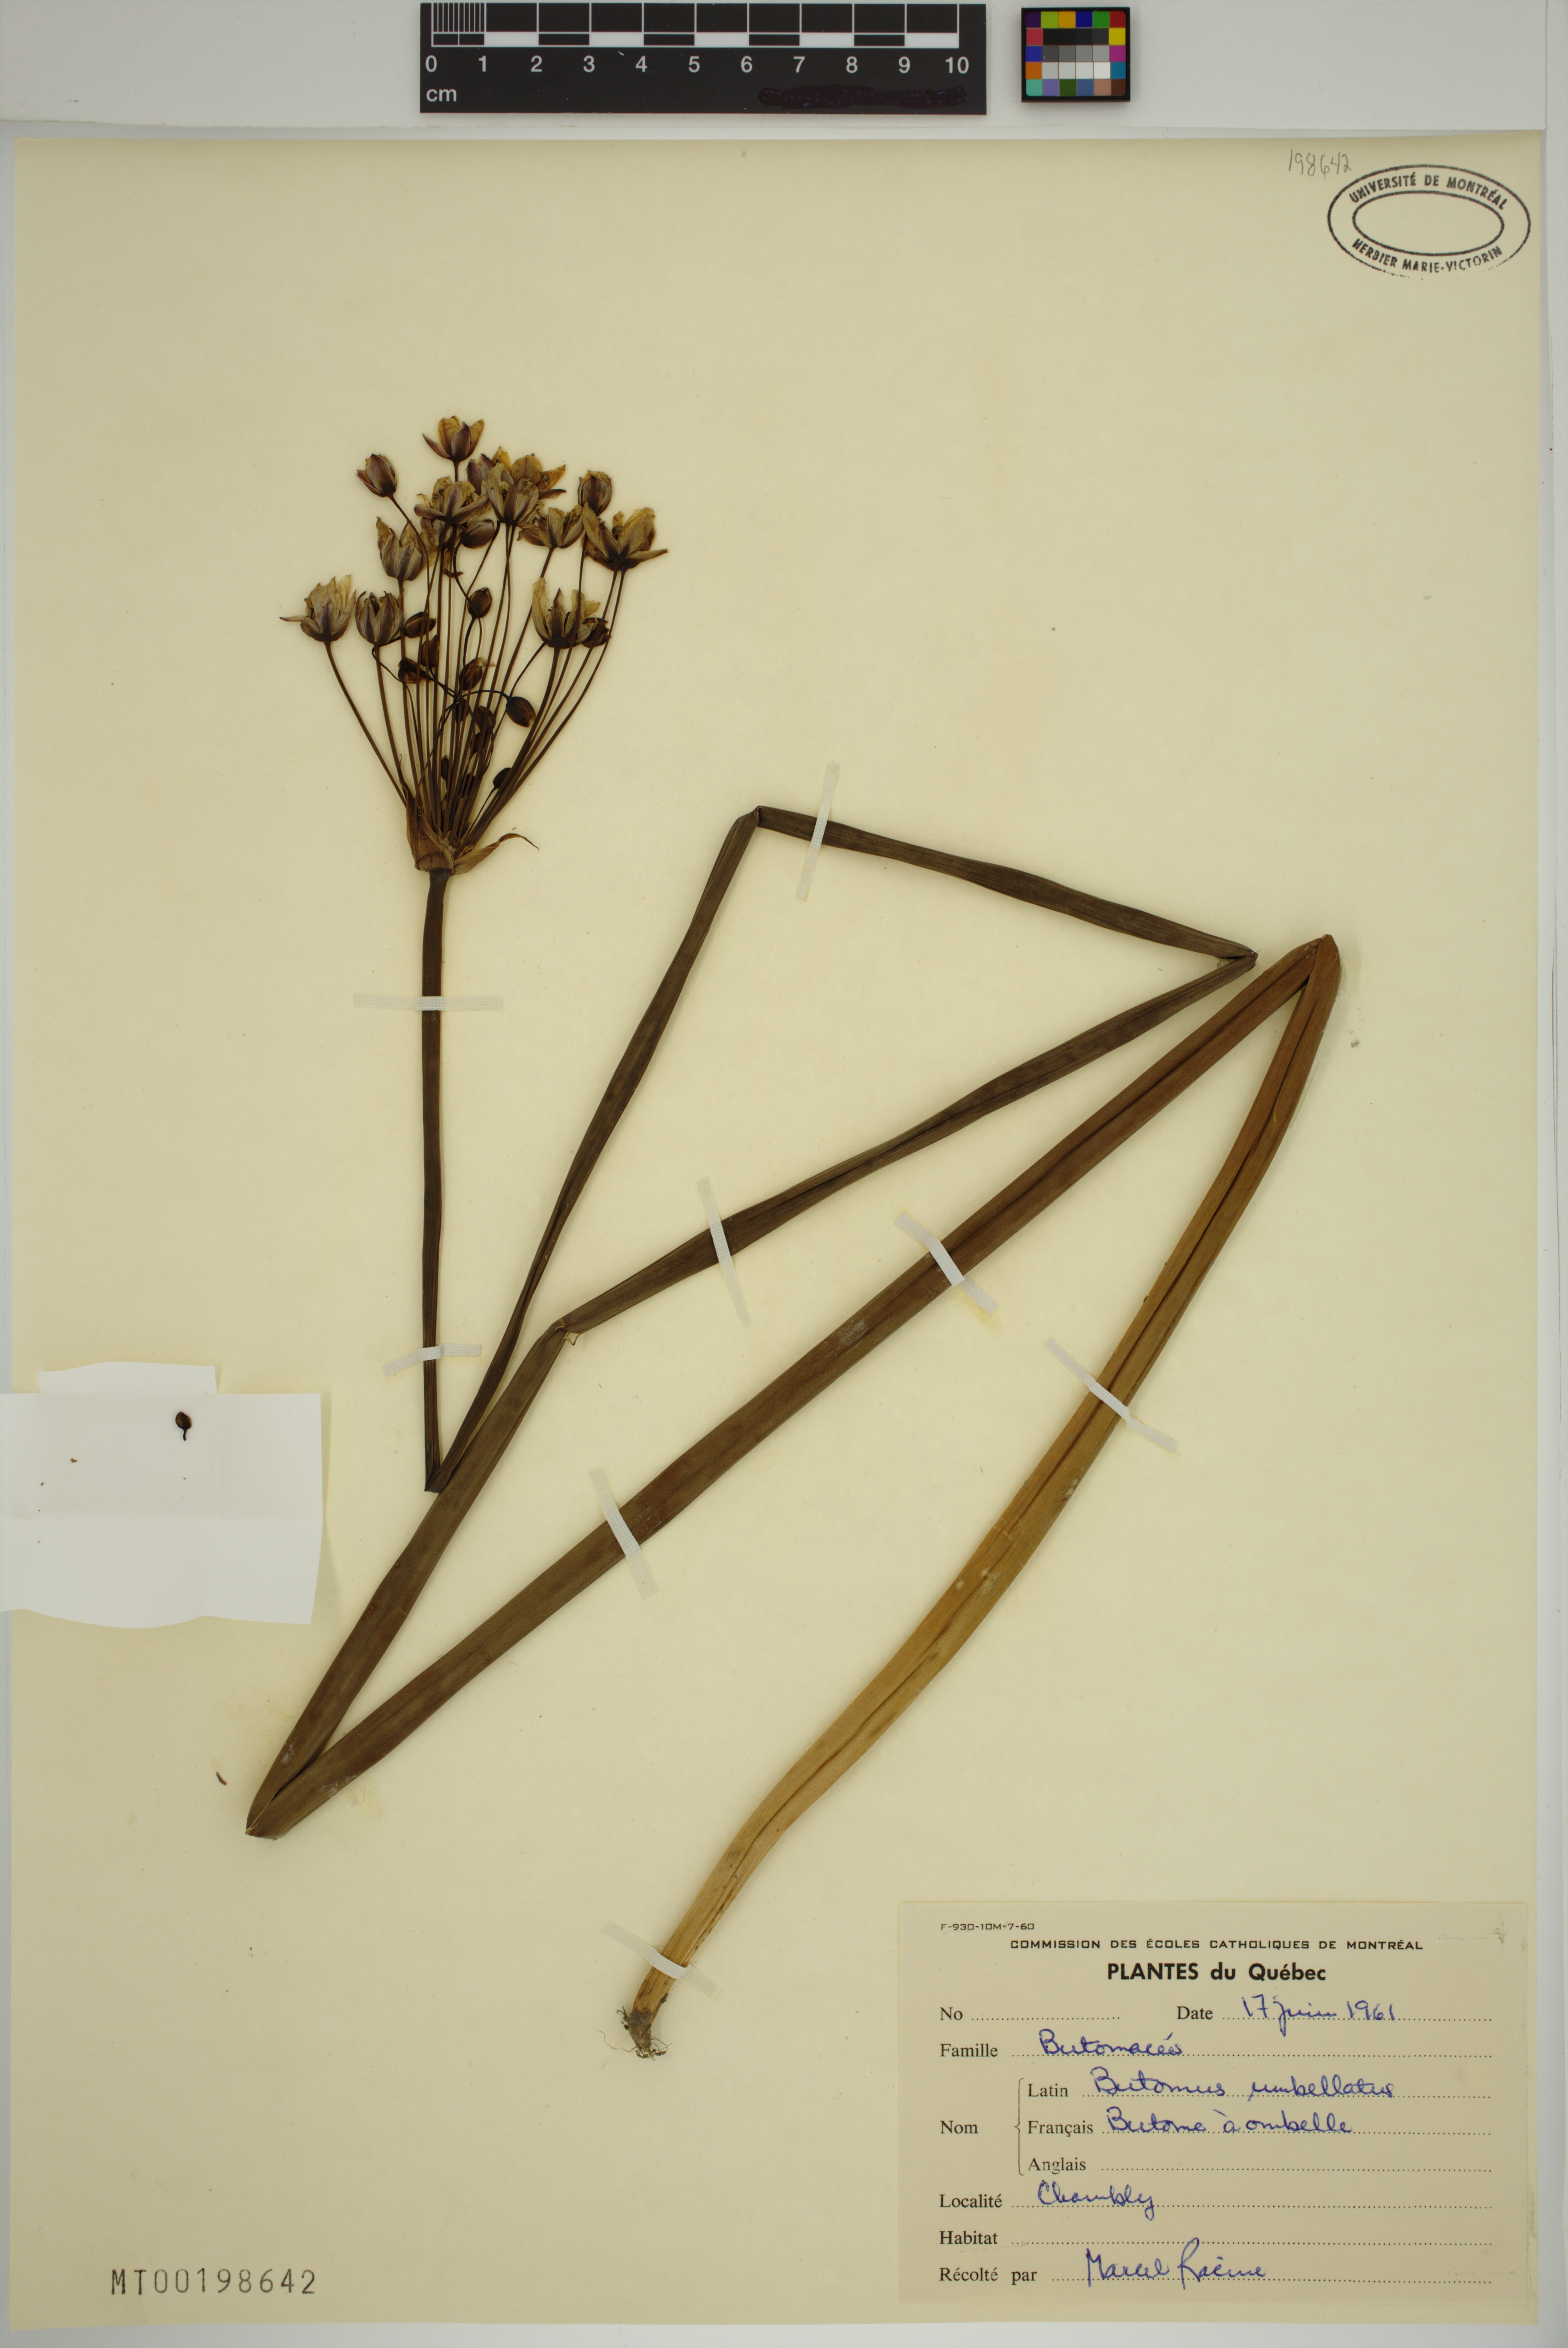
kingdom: Plantae
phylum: Tracheophyta
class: Liliopsida
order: Alismatales
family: Butomaceae
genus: Butomus
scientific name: Butomus umbellatus
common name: Flowering-rush
